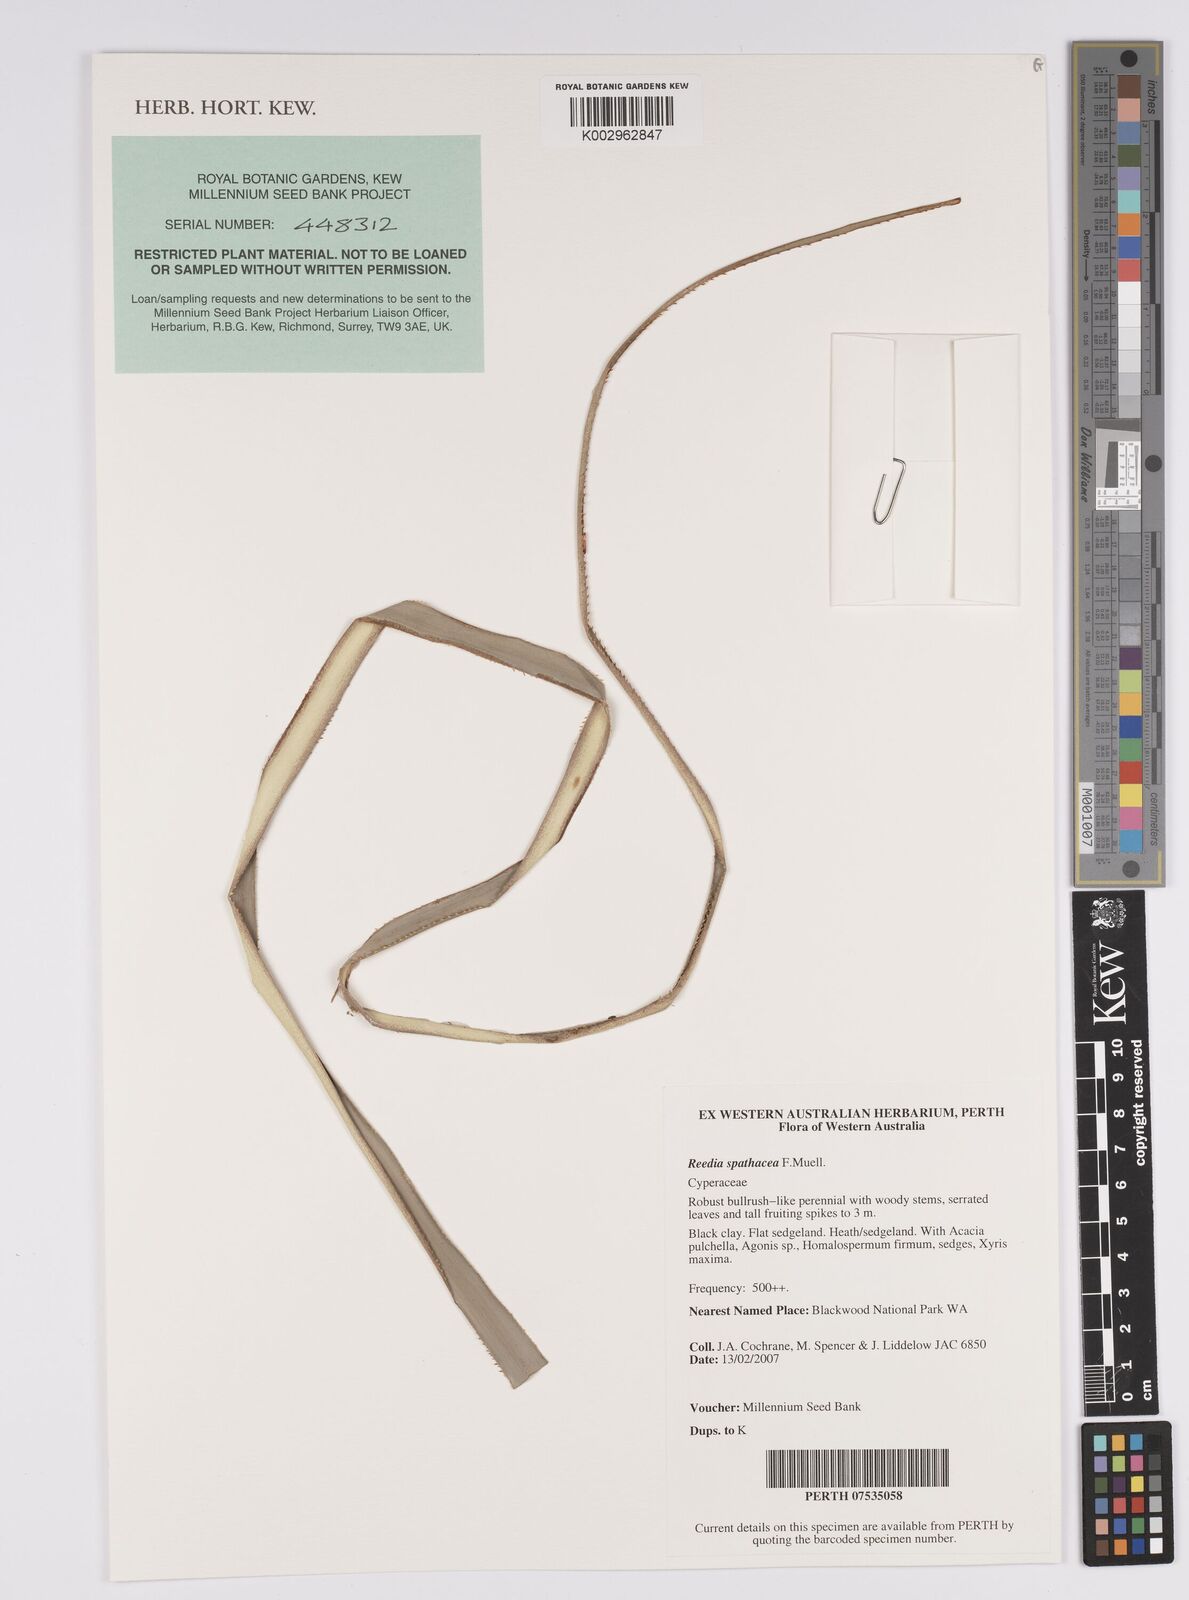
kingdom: Plantae
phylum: Tracheophyta
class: Liliopsida
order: Poales
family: Cyperaceae
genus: Reedia
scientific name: Reedia spathacea
